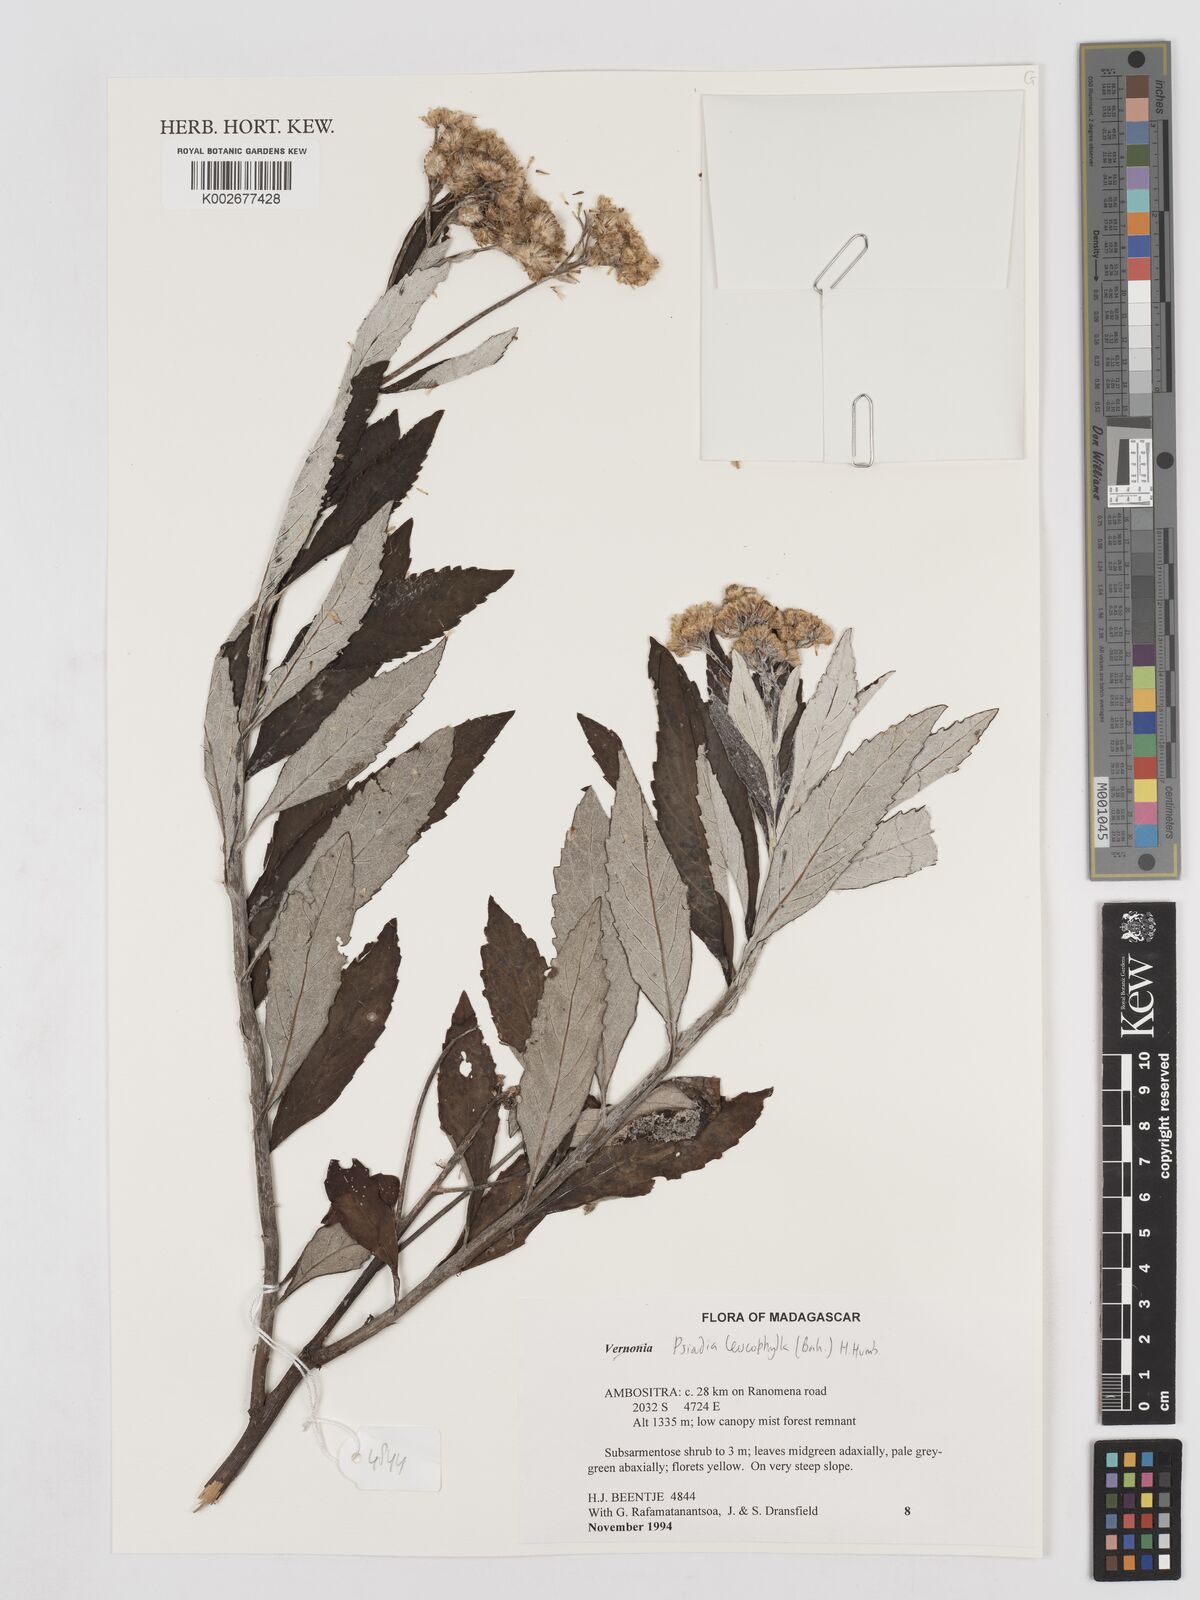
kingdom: Plantae
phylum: Tracheophyta
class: Magnoliopsida
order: Asterales
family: Asteraceae
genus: Psiadia
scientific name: Psiadia leucophylla
